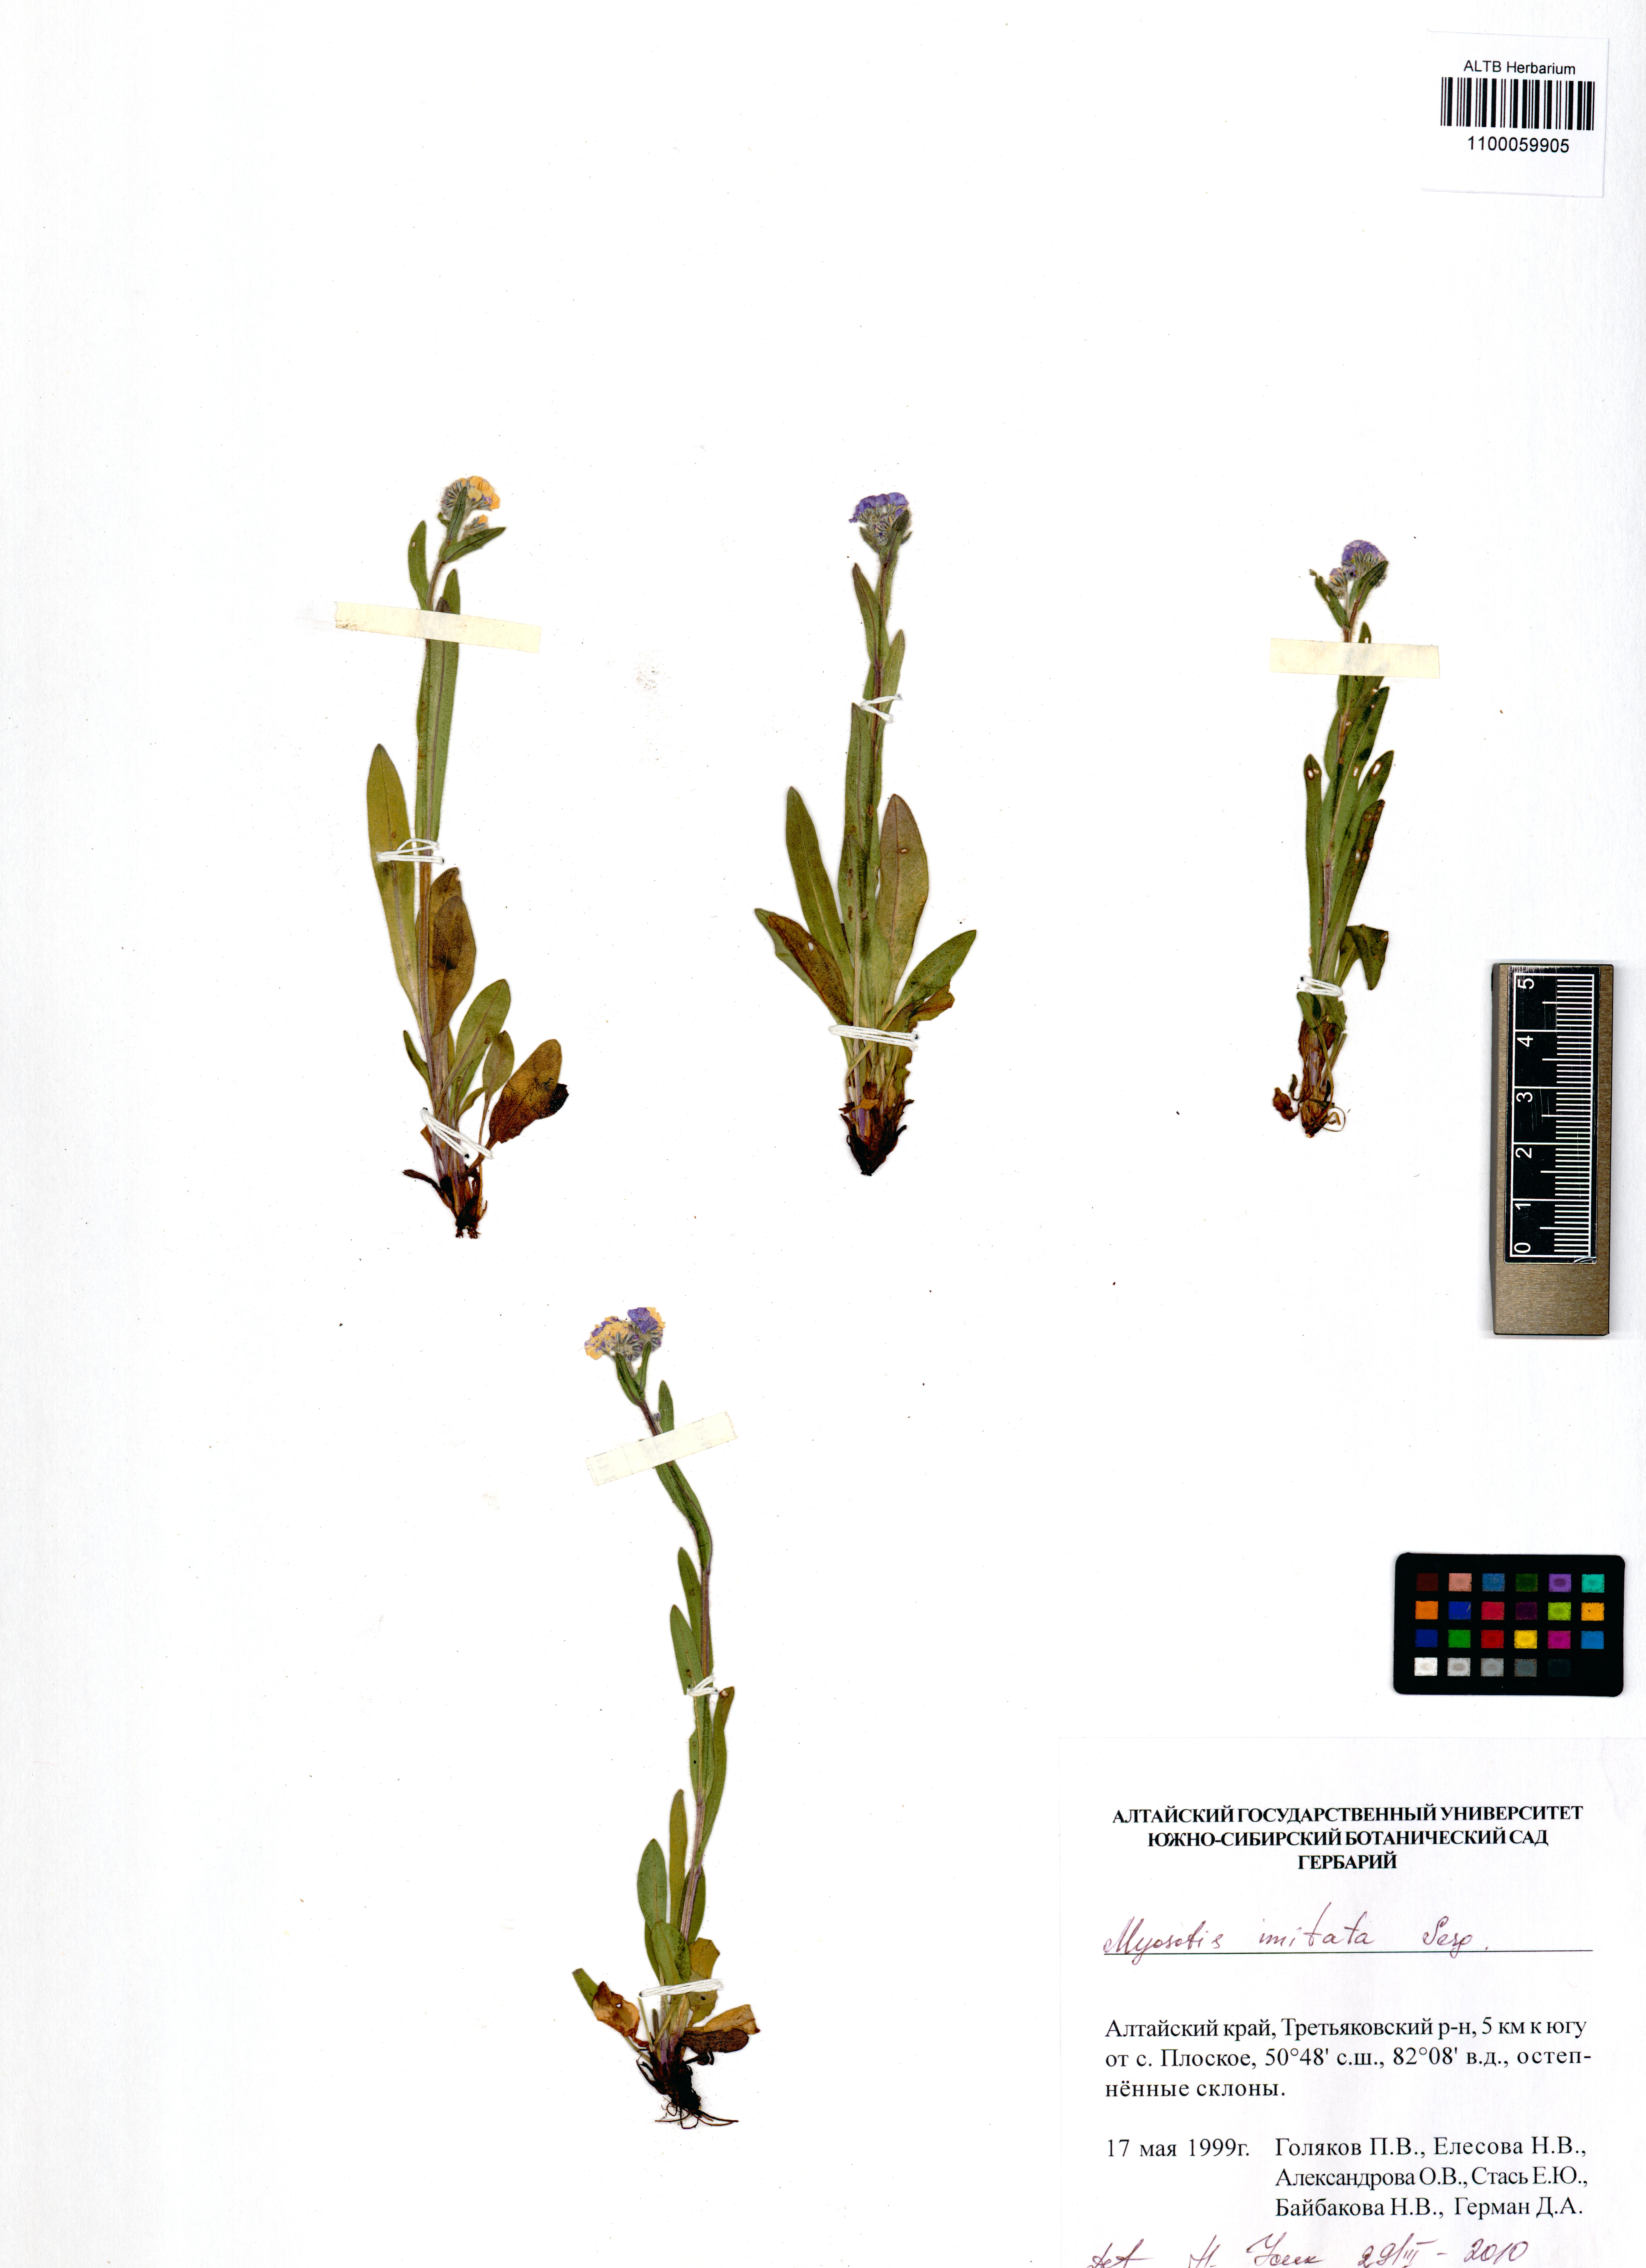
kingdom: Plantae
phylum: Tracheophyta
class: Magnoliopsida
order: Boraginales
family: Boraginaceae
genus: Myosotis
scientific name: Myosotis imitata
